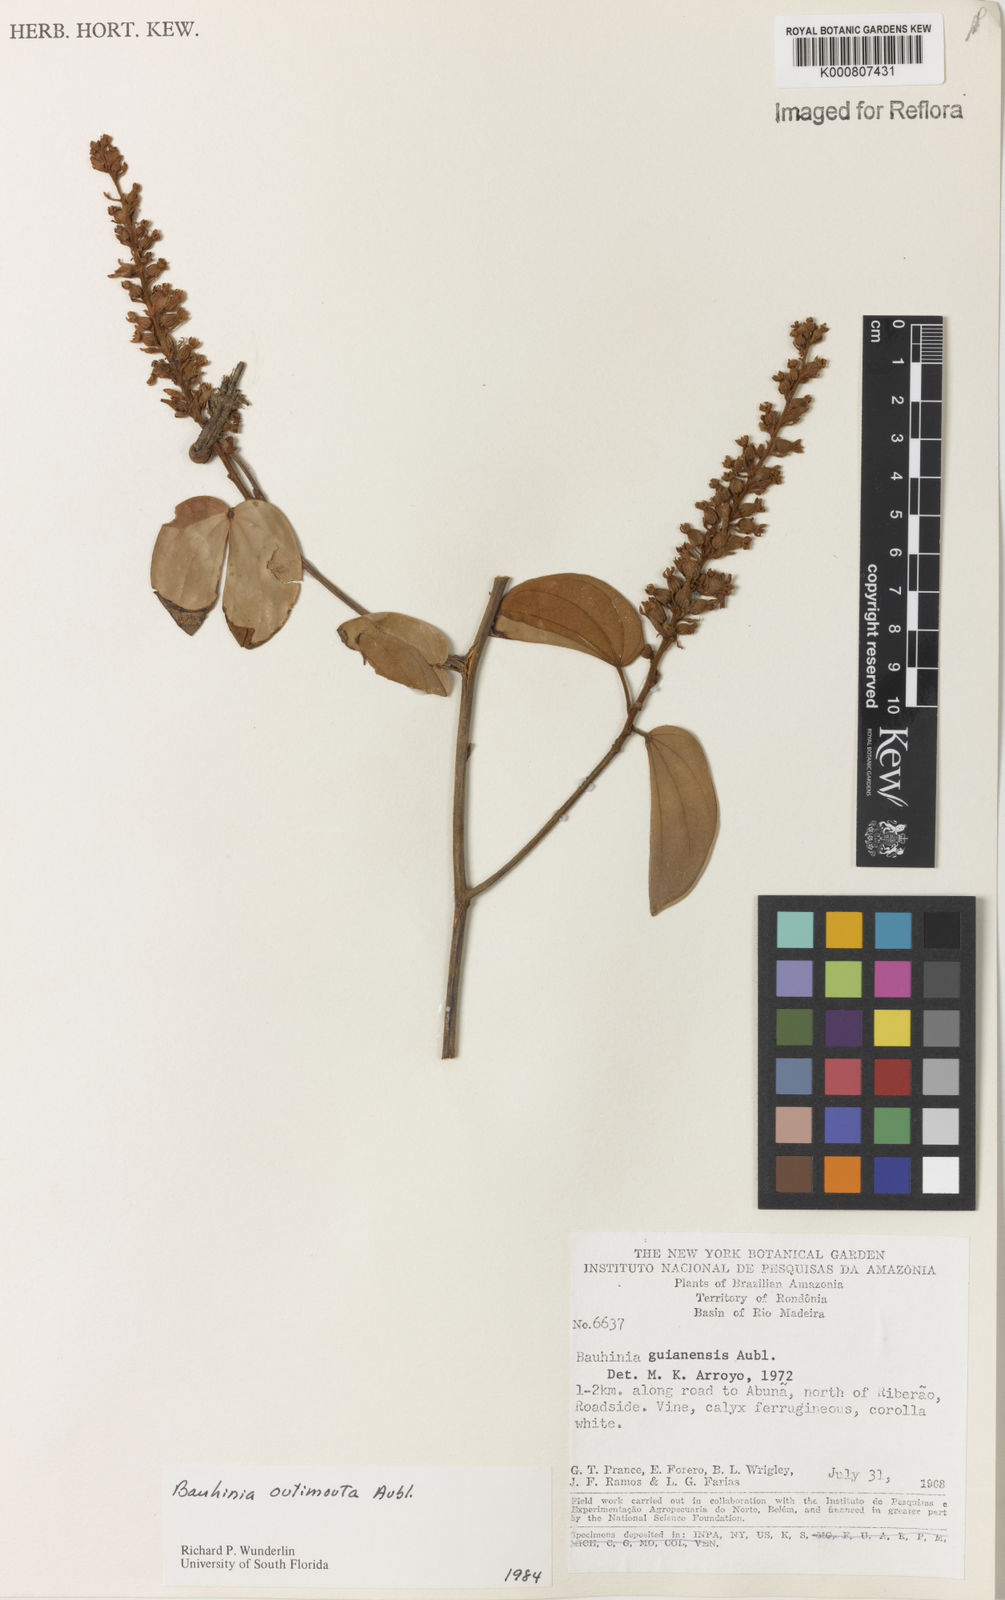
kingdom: Plantae
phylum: Tracheophyta
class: Magnoliopsida
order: Fabales
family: Fabaceae
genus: Schnella
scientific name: Schnella outimouta
